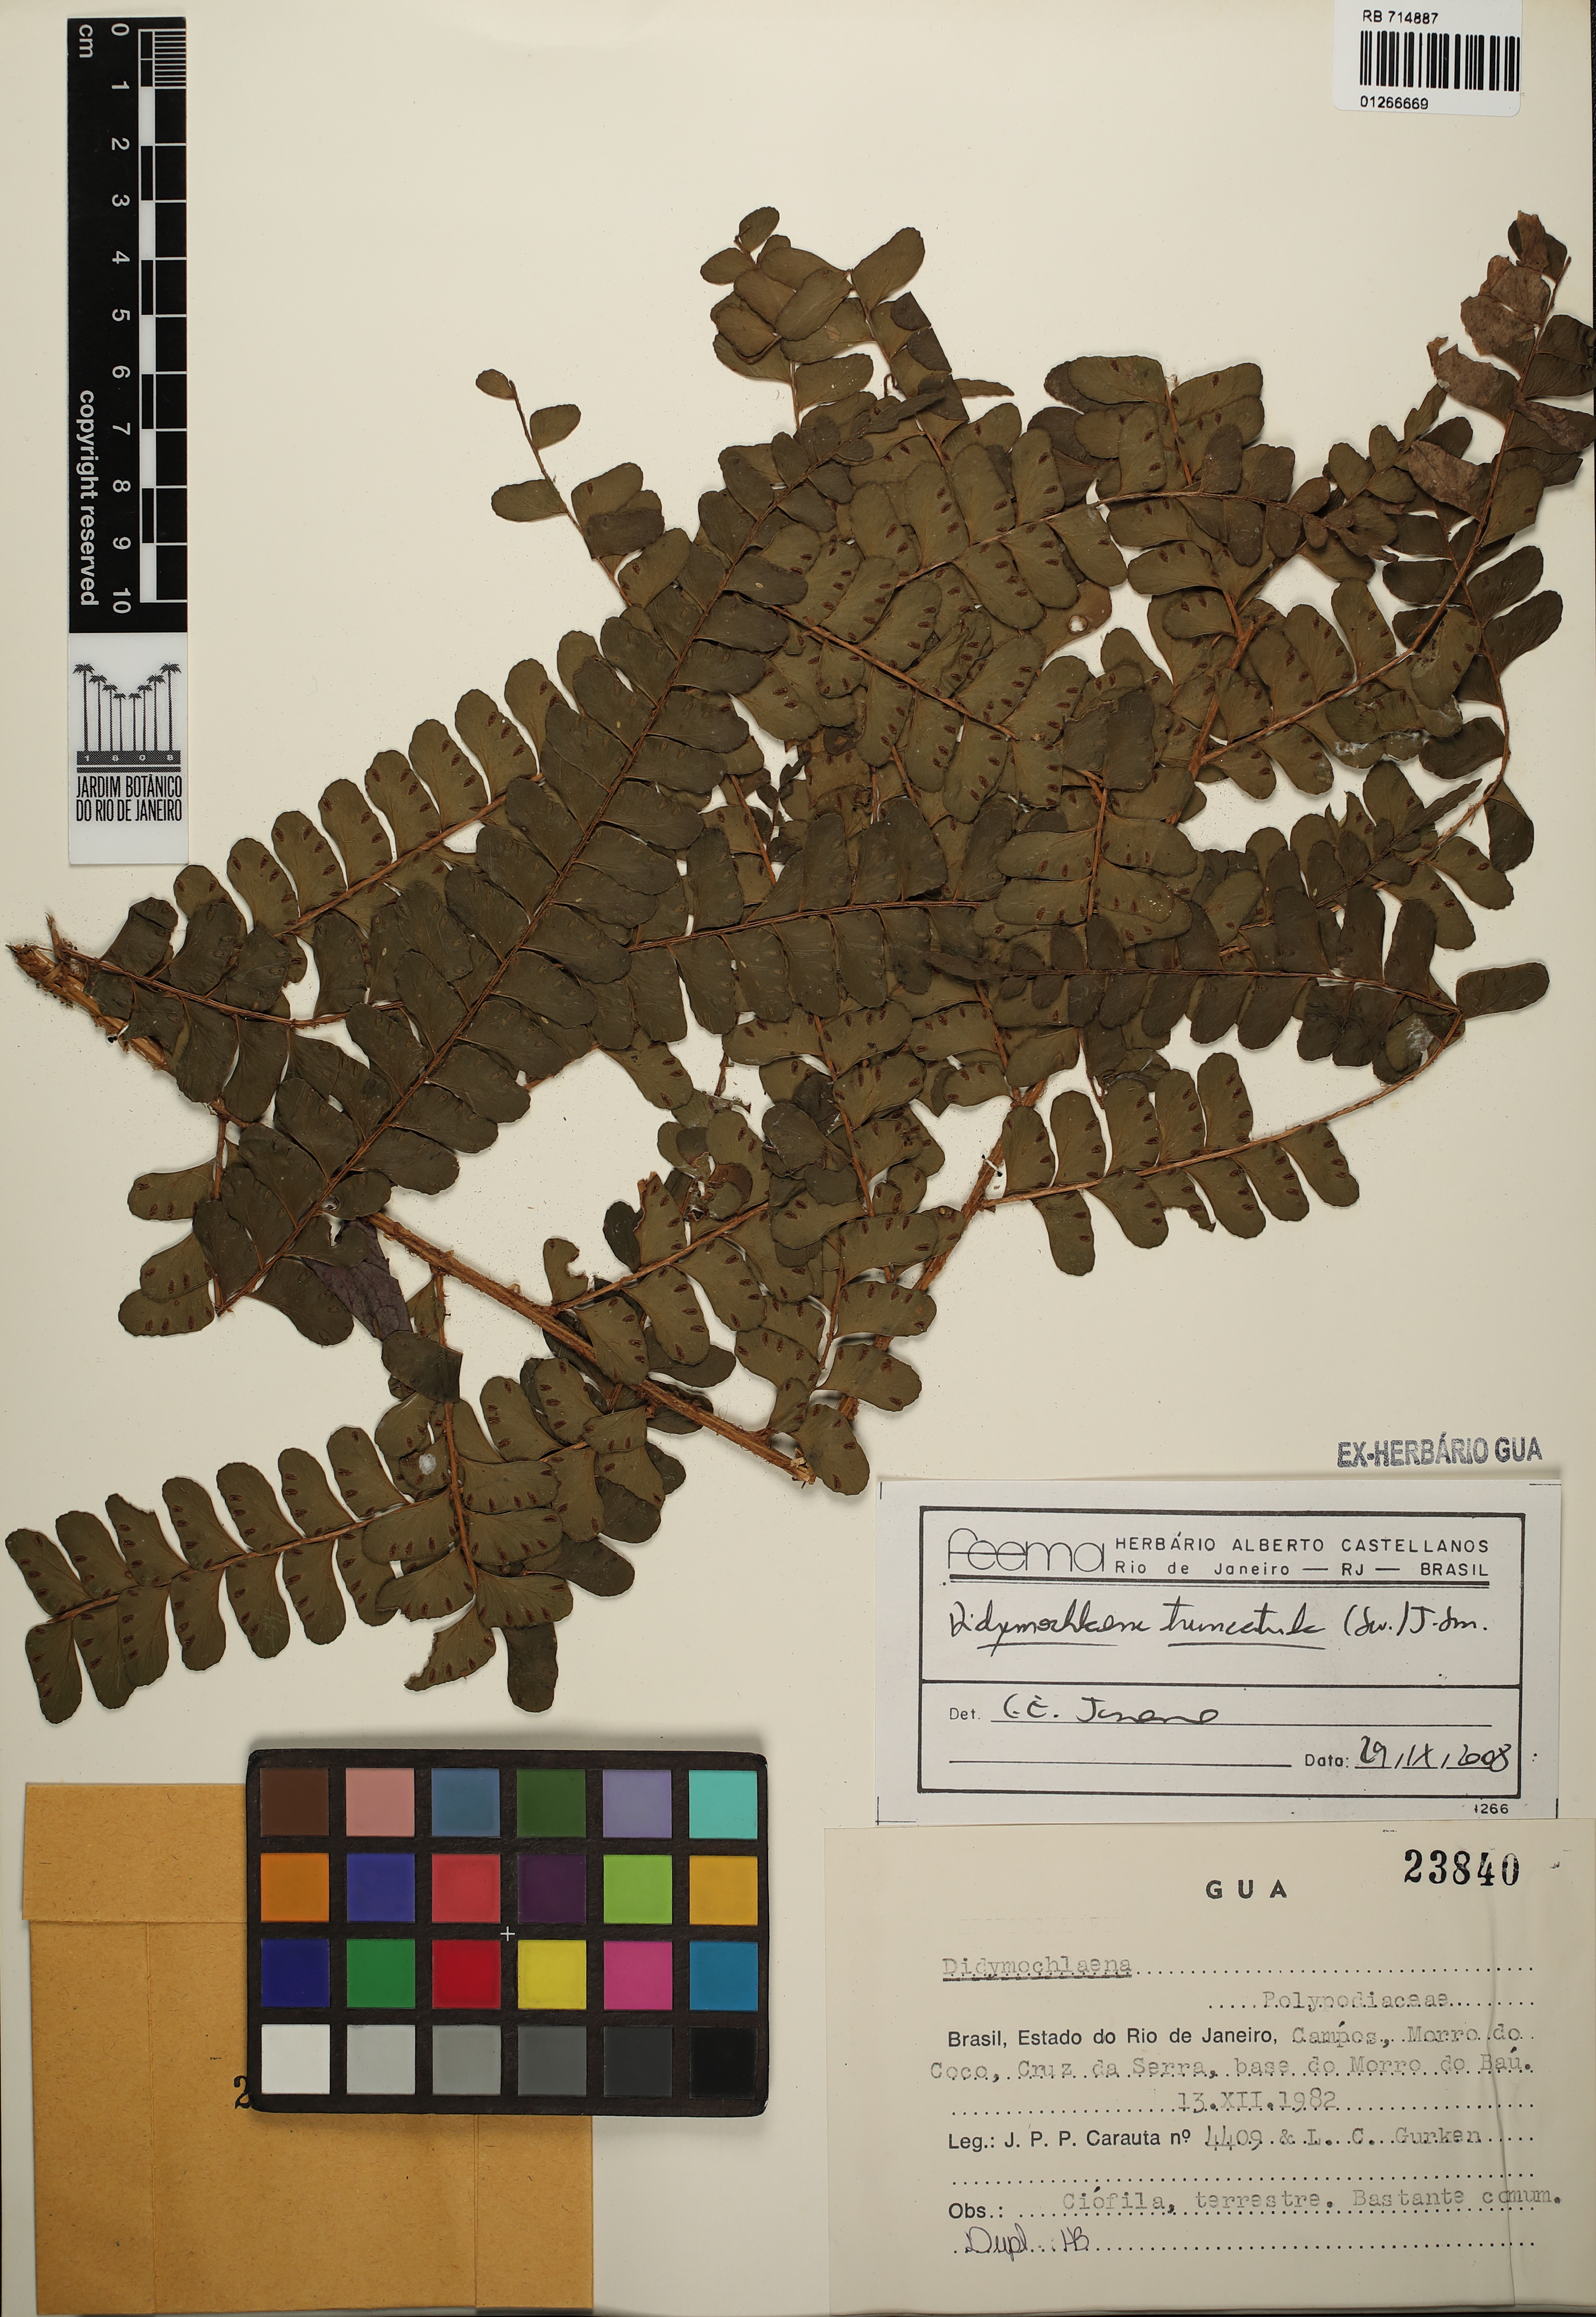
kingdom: Plantae
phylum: Tracheophyta
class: Polypodiopsida
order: Polypodiales
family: Didymochlaenaceae
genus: Didymochlaena
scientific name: Didymochlaena truncatula
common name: Mahogany fern
